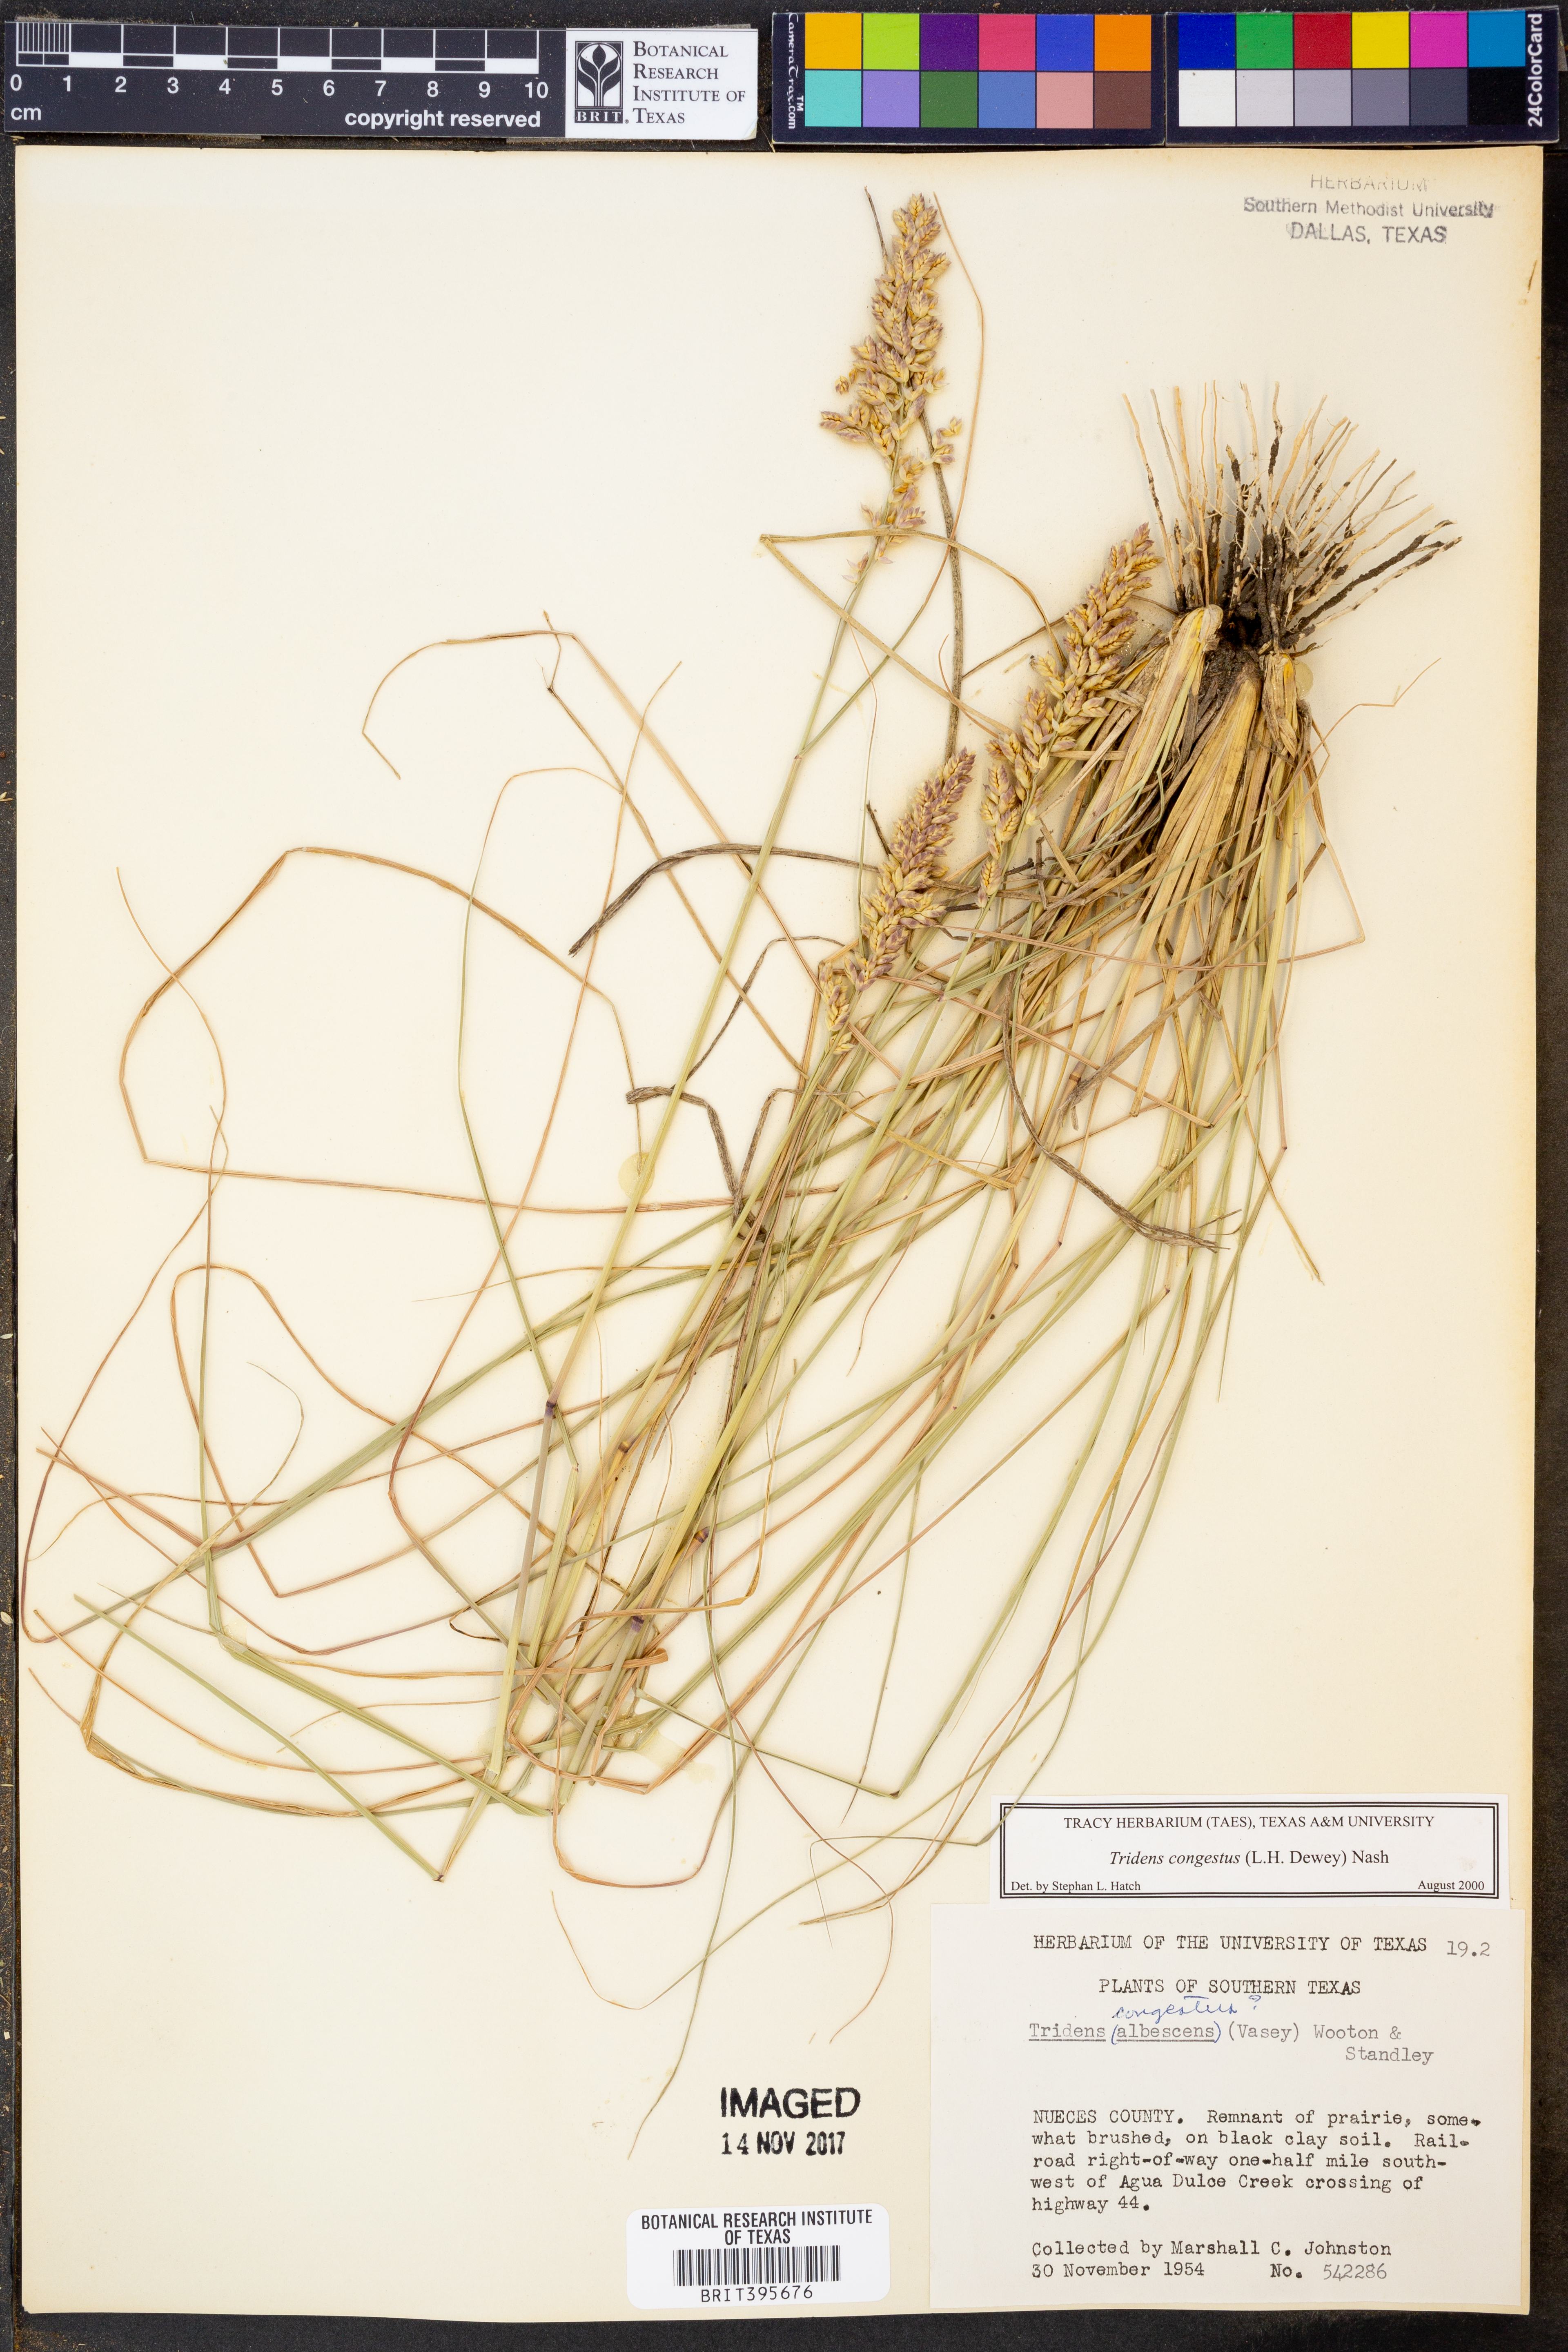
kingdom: Plantae
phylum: Tracheophyta
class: Liliopsida
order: Poales
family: Poaceae
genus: Tridens
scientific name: Tridens congestus
